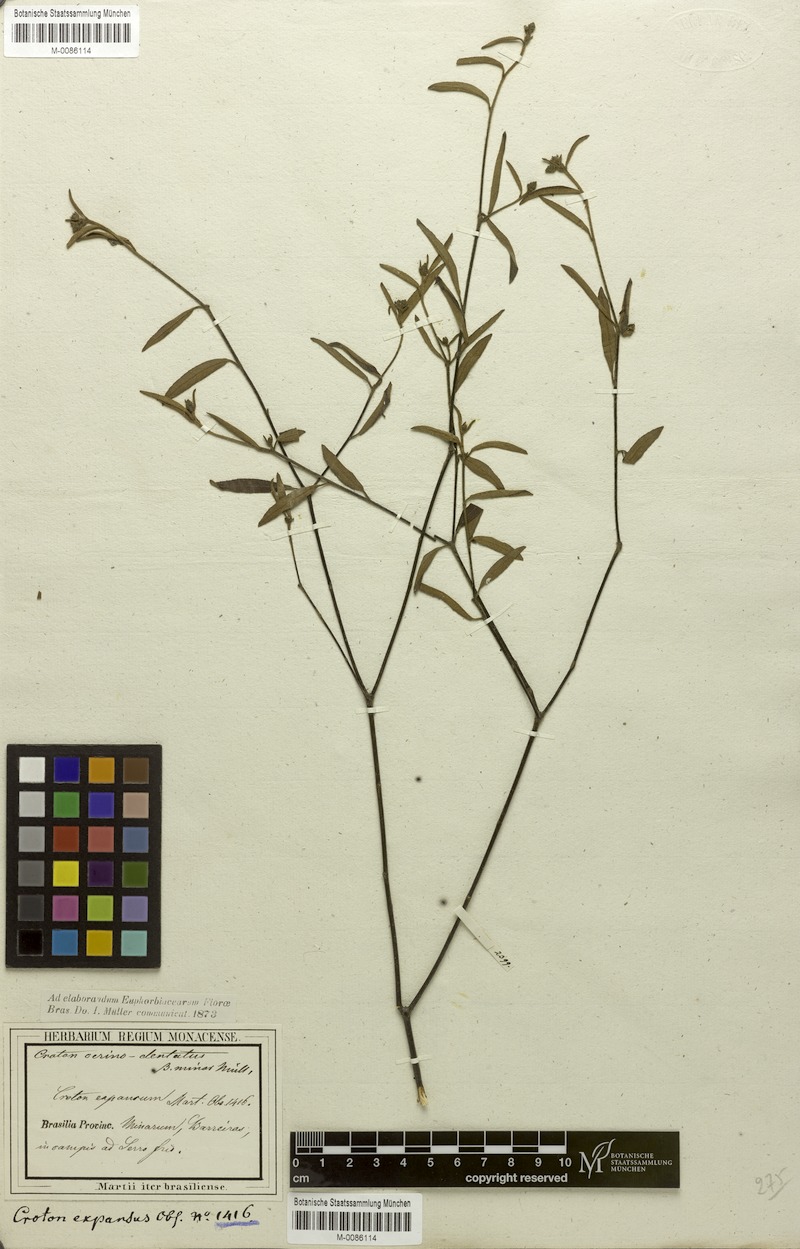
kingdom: Plantae
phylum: Tracheophyta
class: Magnoliopsida
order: Malpighiales
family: Euphorbiaceae
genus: Croton
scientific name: Croton cerinodentatus
